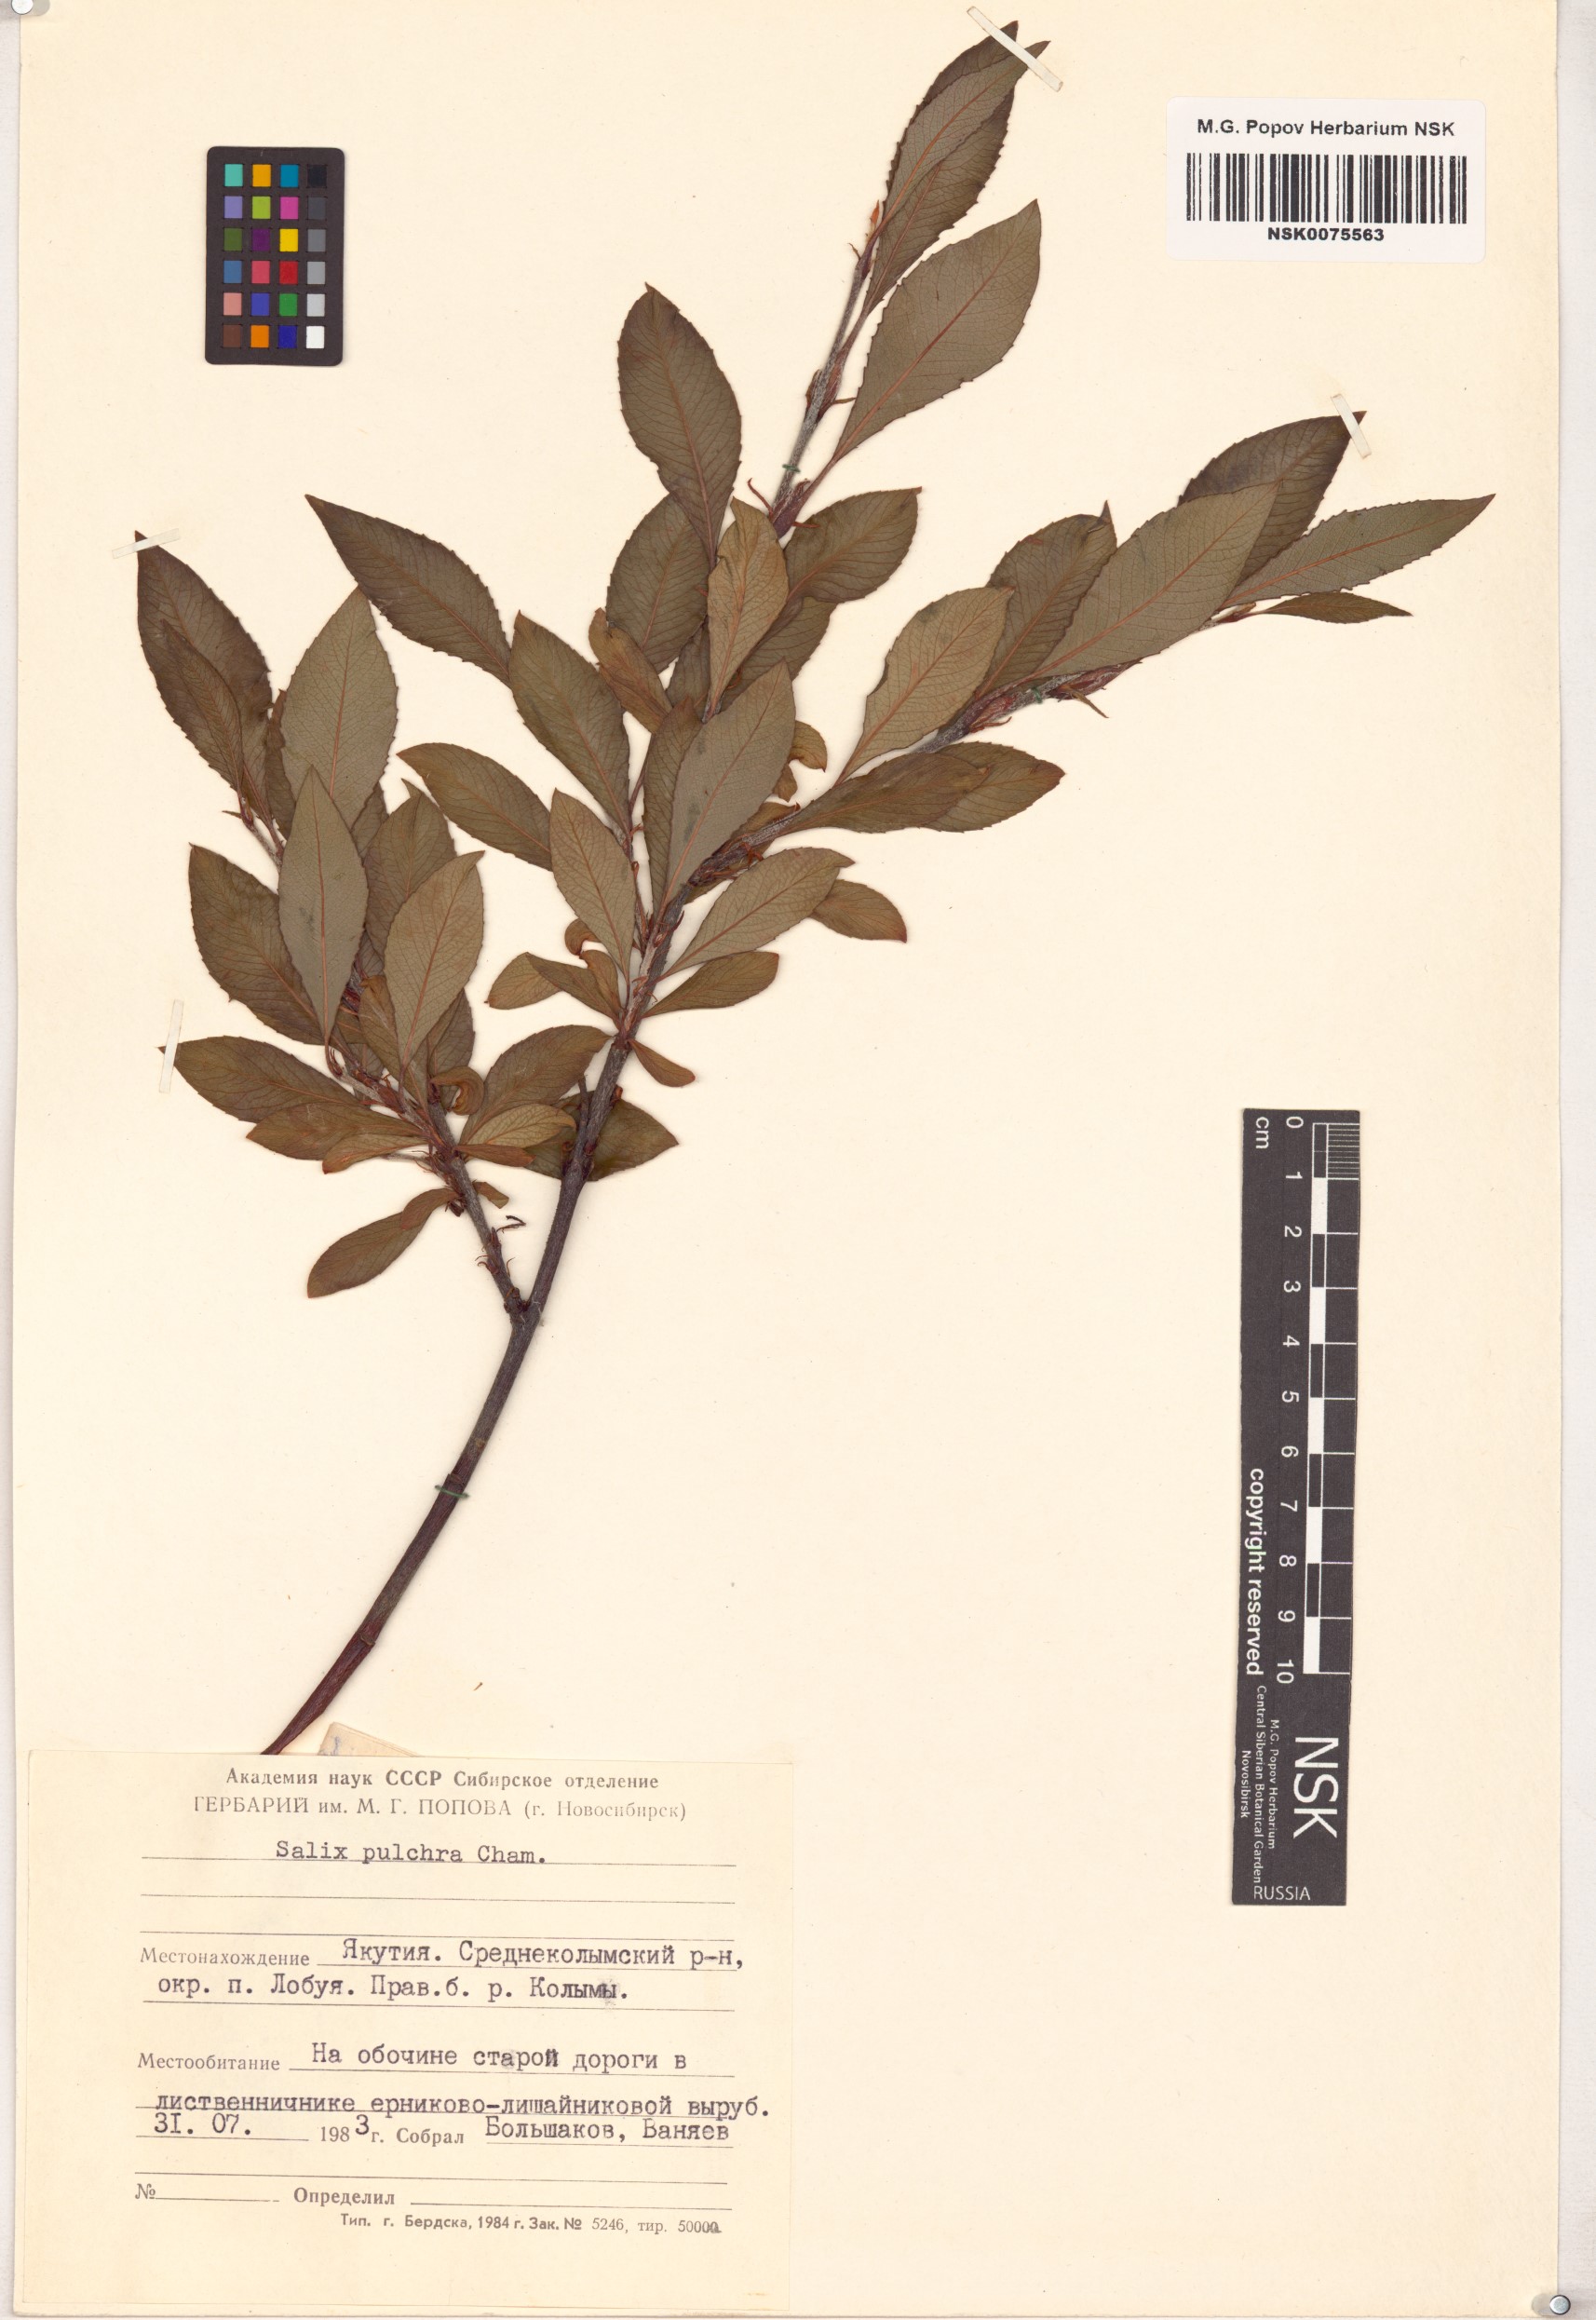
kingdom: Plantae
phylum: Tracheophyta
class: Magnoliopsida
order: Malpighiales
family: Salicaceae
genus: Salix
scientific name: Salix pulchra
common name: Diamond-leaved willow
